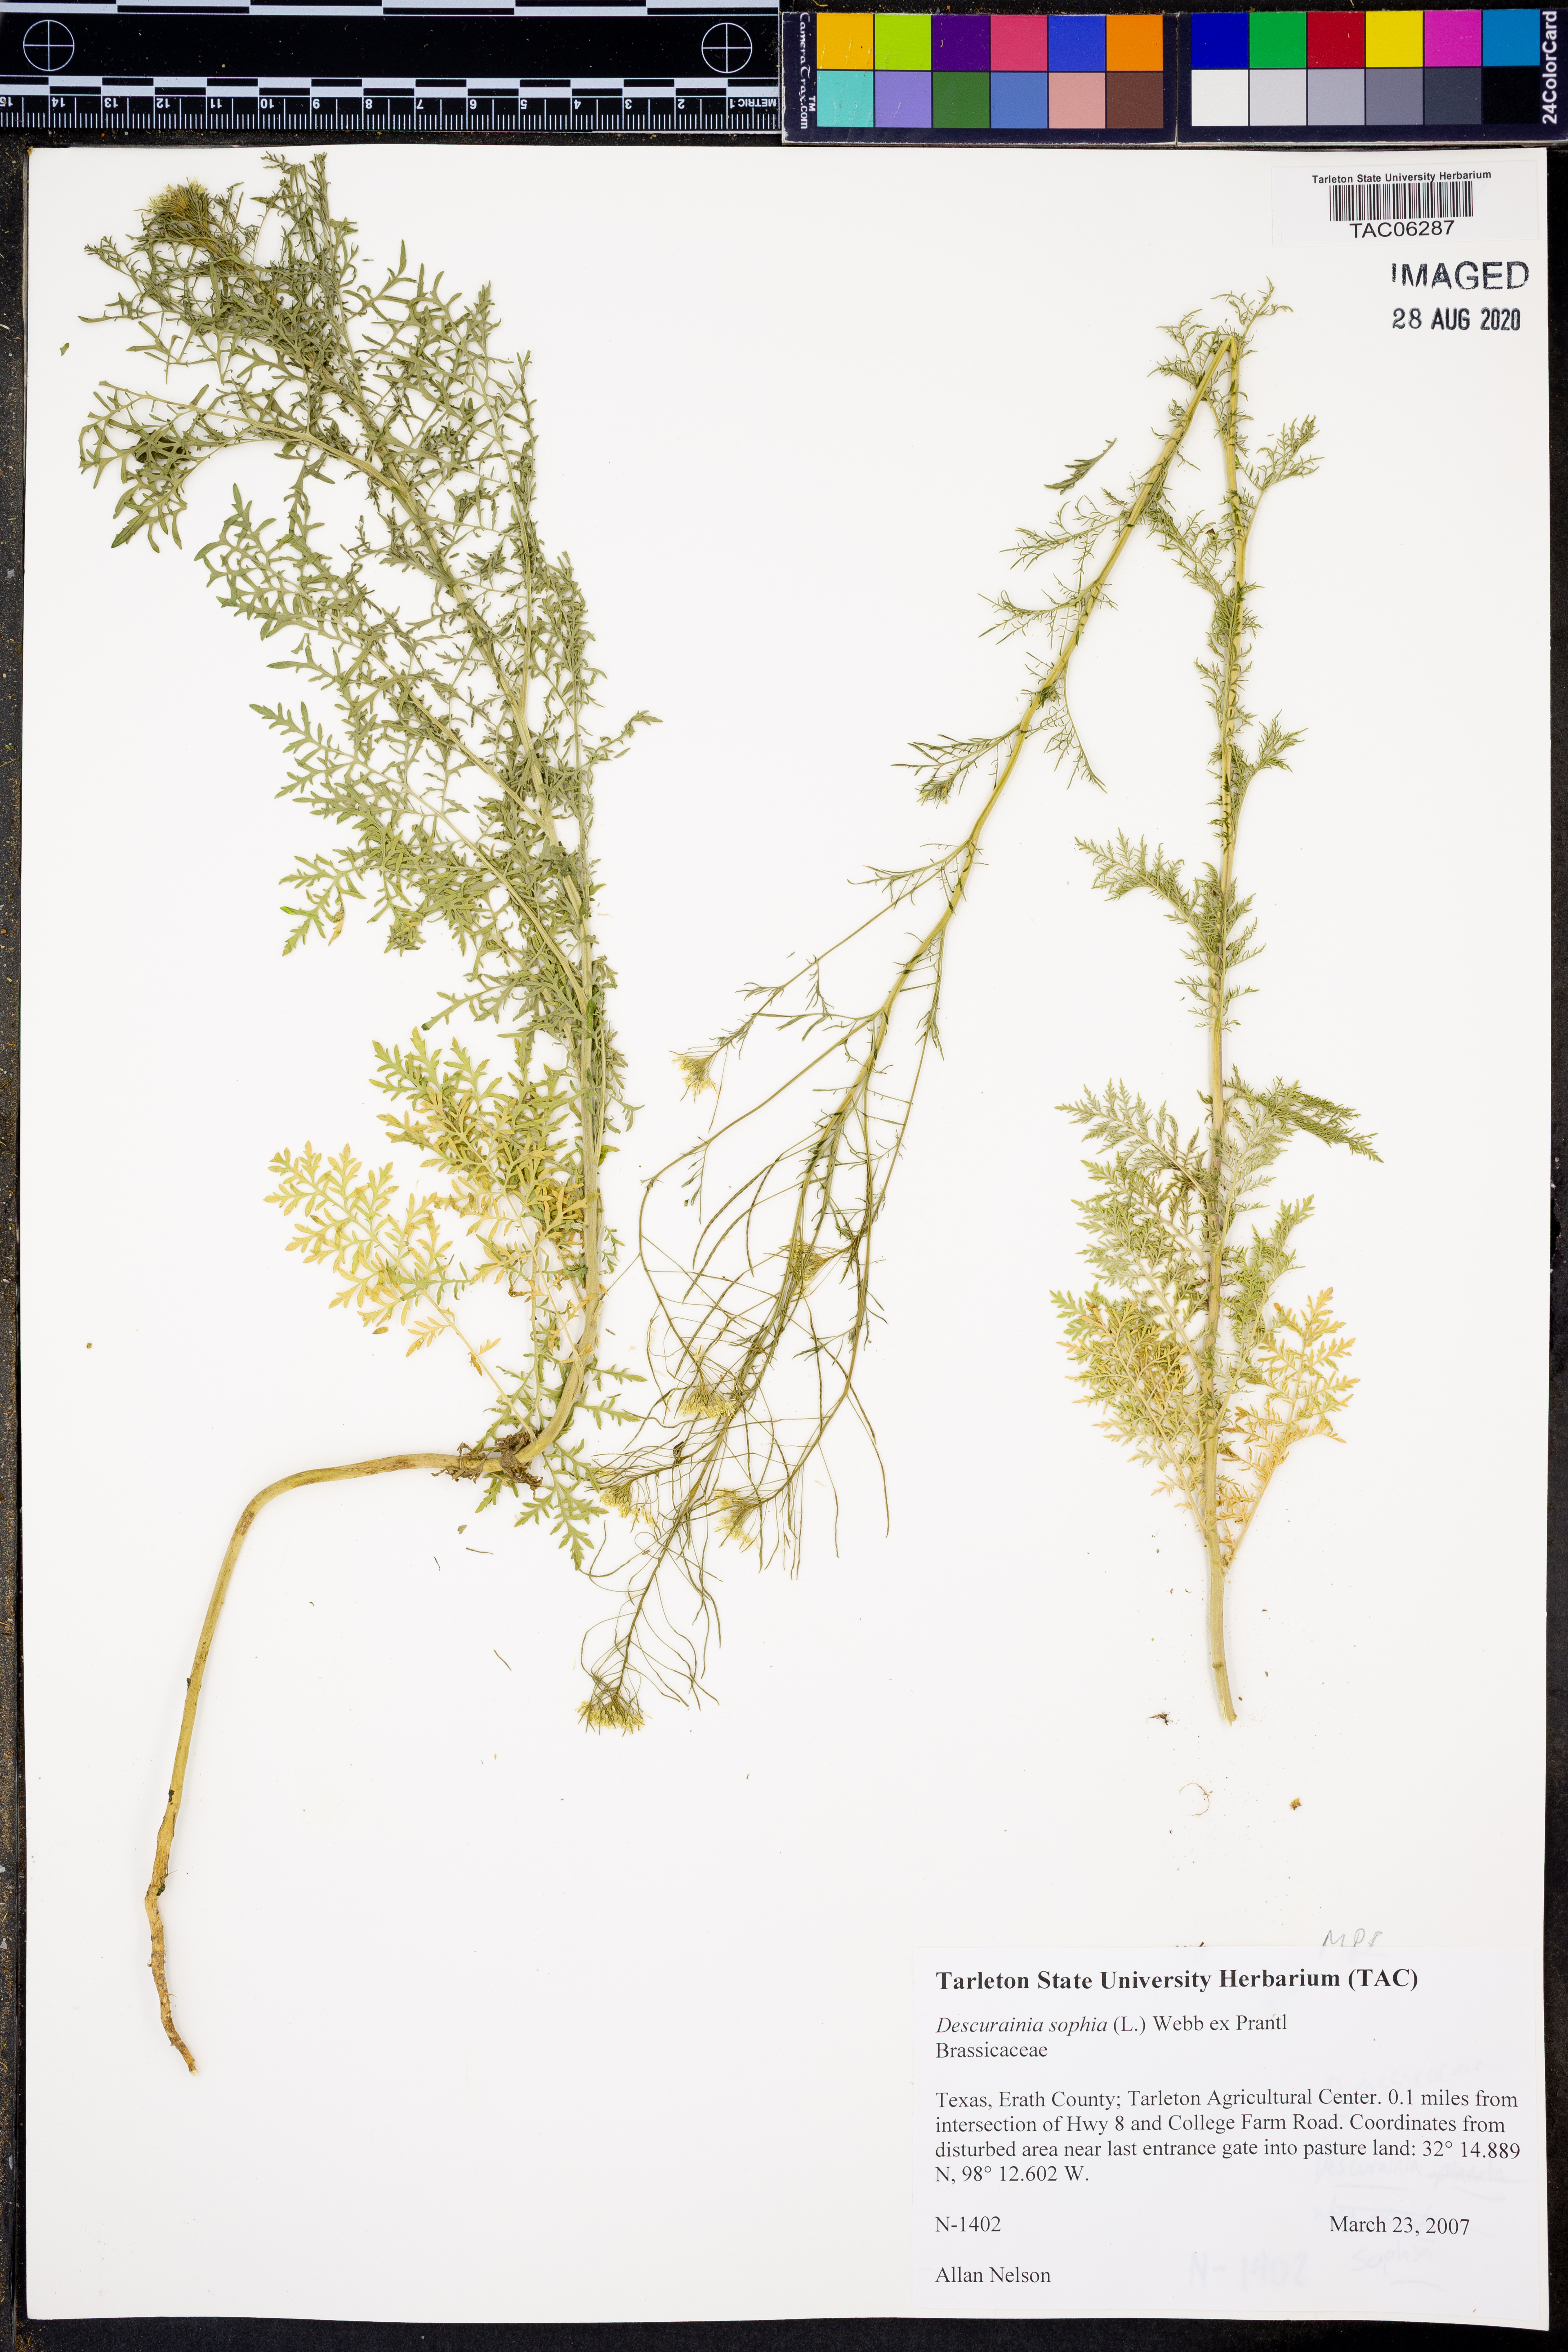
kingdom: Plantae
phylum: Tracheophyta
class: Magnoliopsida
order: Brassicales
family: Brassicaceae
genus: Descurainia
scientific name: Descurainia sophia
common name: Flixweed
